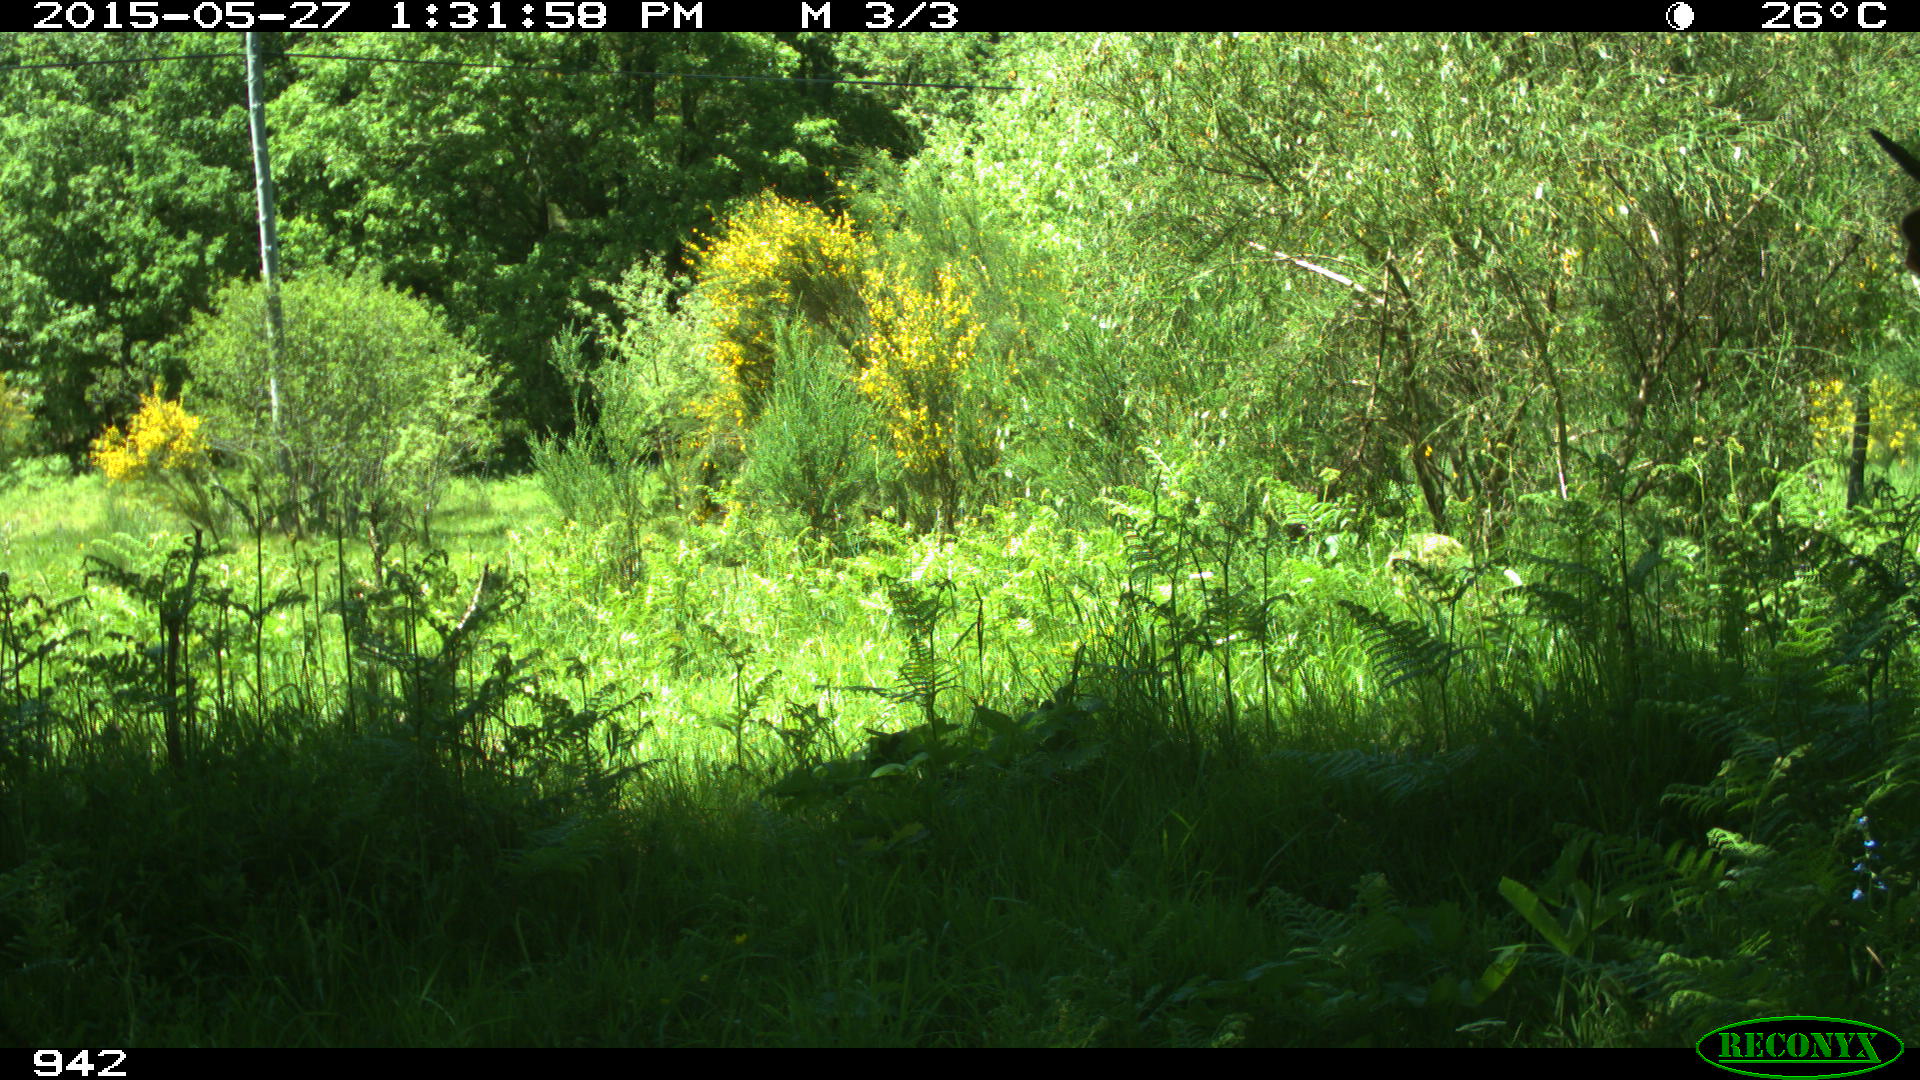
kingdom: Animalia
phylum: Chordata
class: Mammalia
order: Artiodactyla
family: Bovidae
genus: Bos
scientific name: Bos taurus
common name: Domesticated cattle
